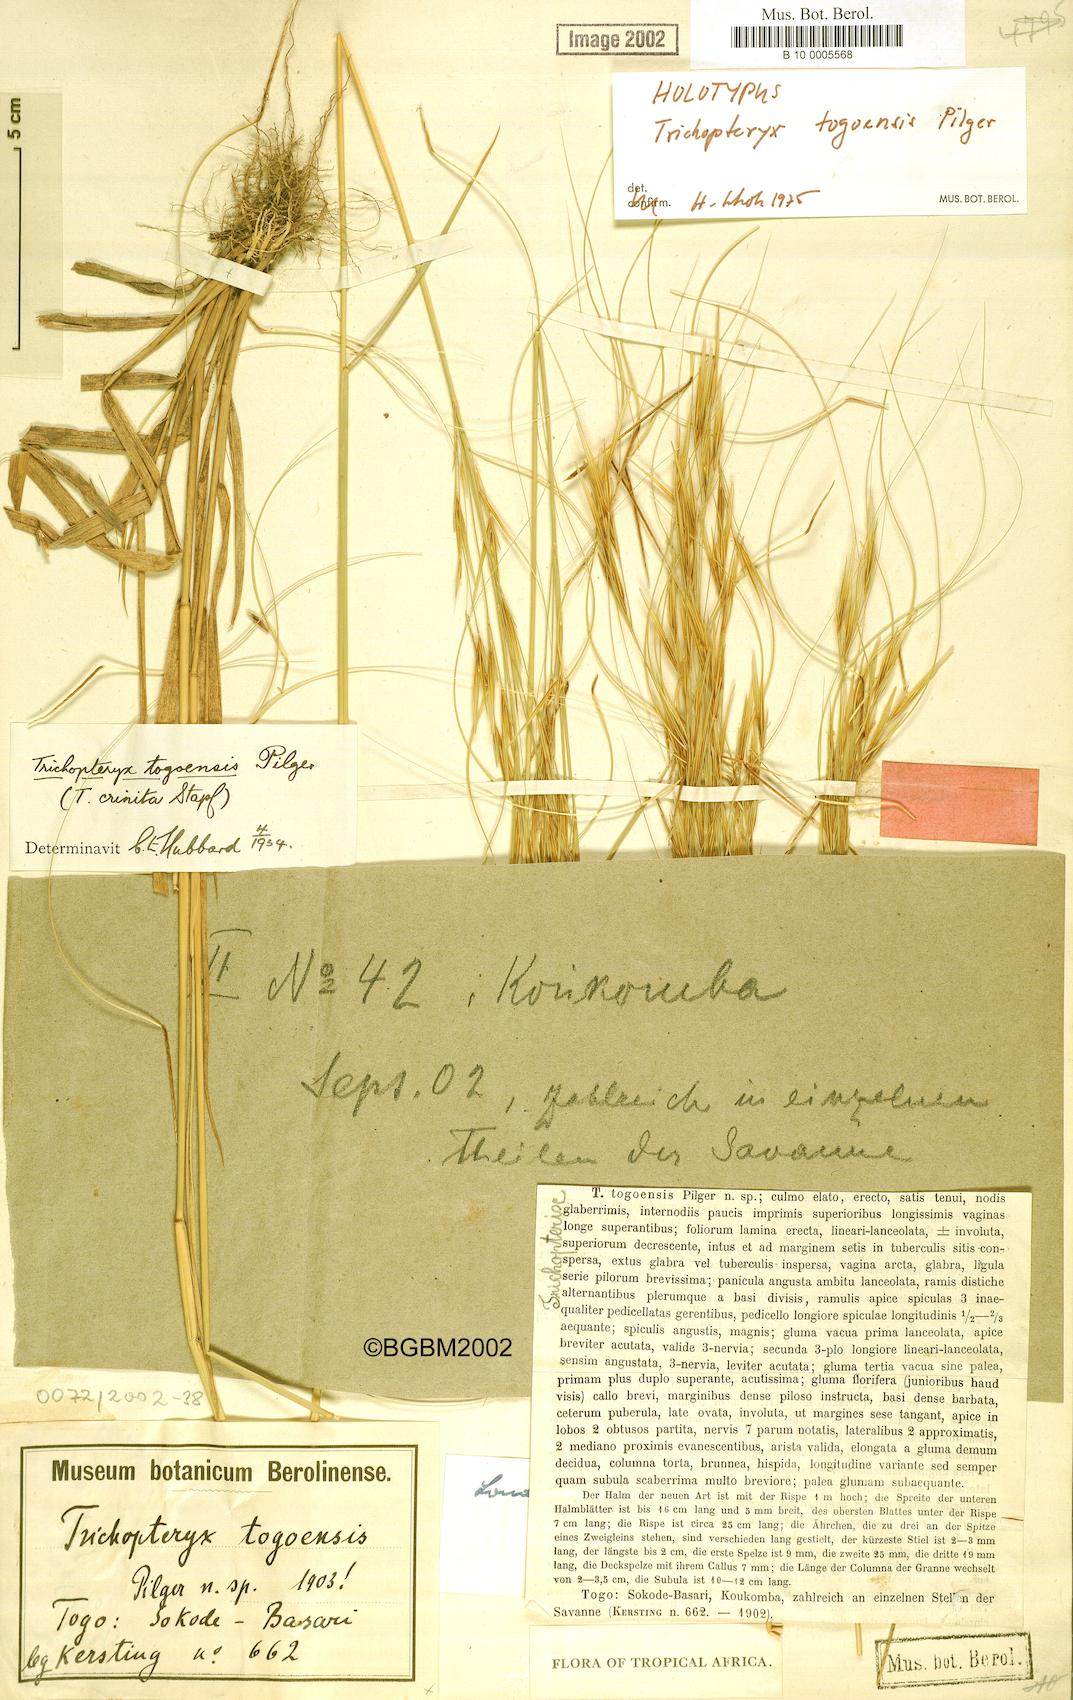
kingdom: Plantae
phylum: Tracheophyta
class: Liliopsida
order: Poales
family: Poaceae
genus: Loudetia
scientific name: Loudetia togoensis
